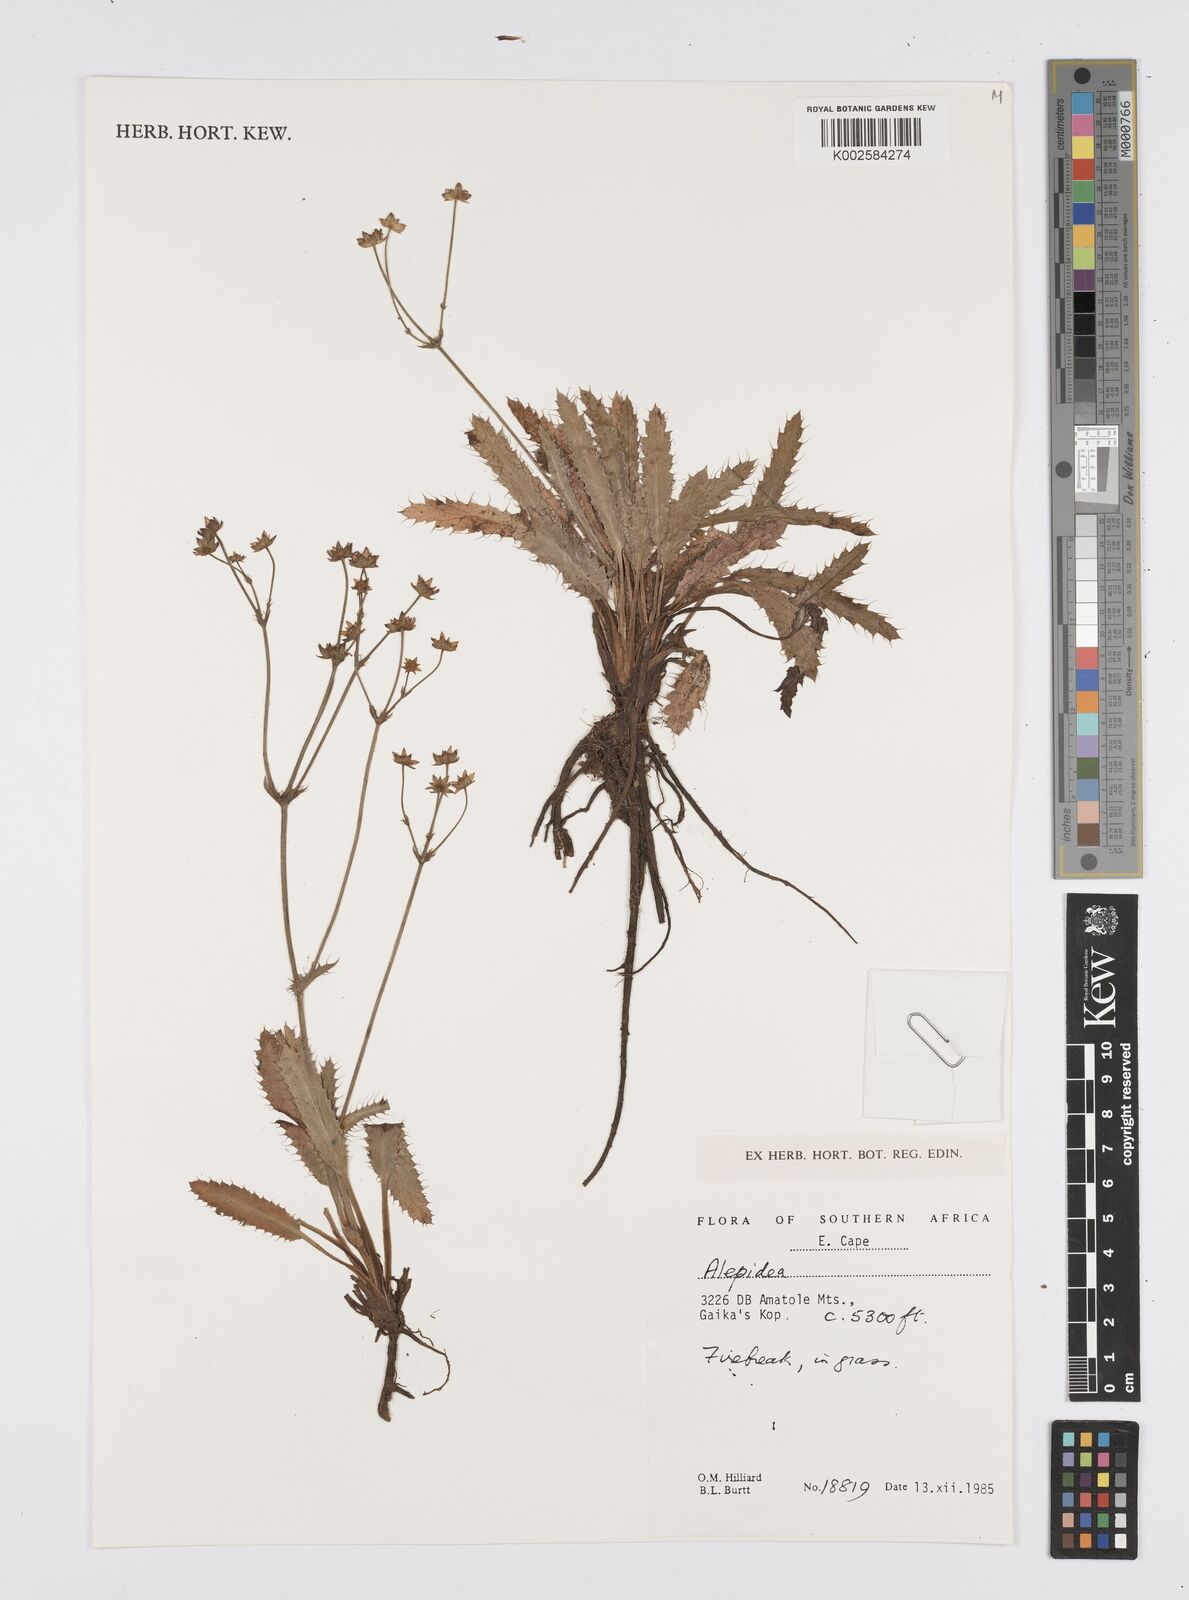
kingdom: Plantae
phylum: Tracheophyta
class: Magnoliopsida
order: Apiales
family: Apiaceae
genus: Alepidea
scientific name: Alepidea
